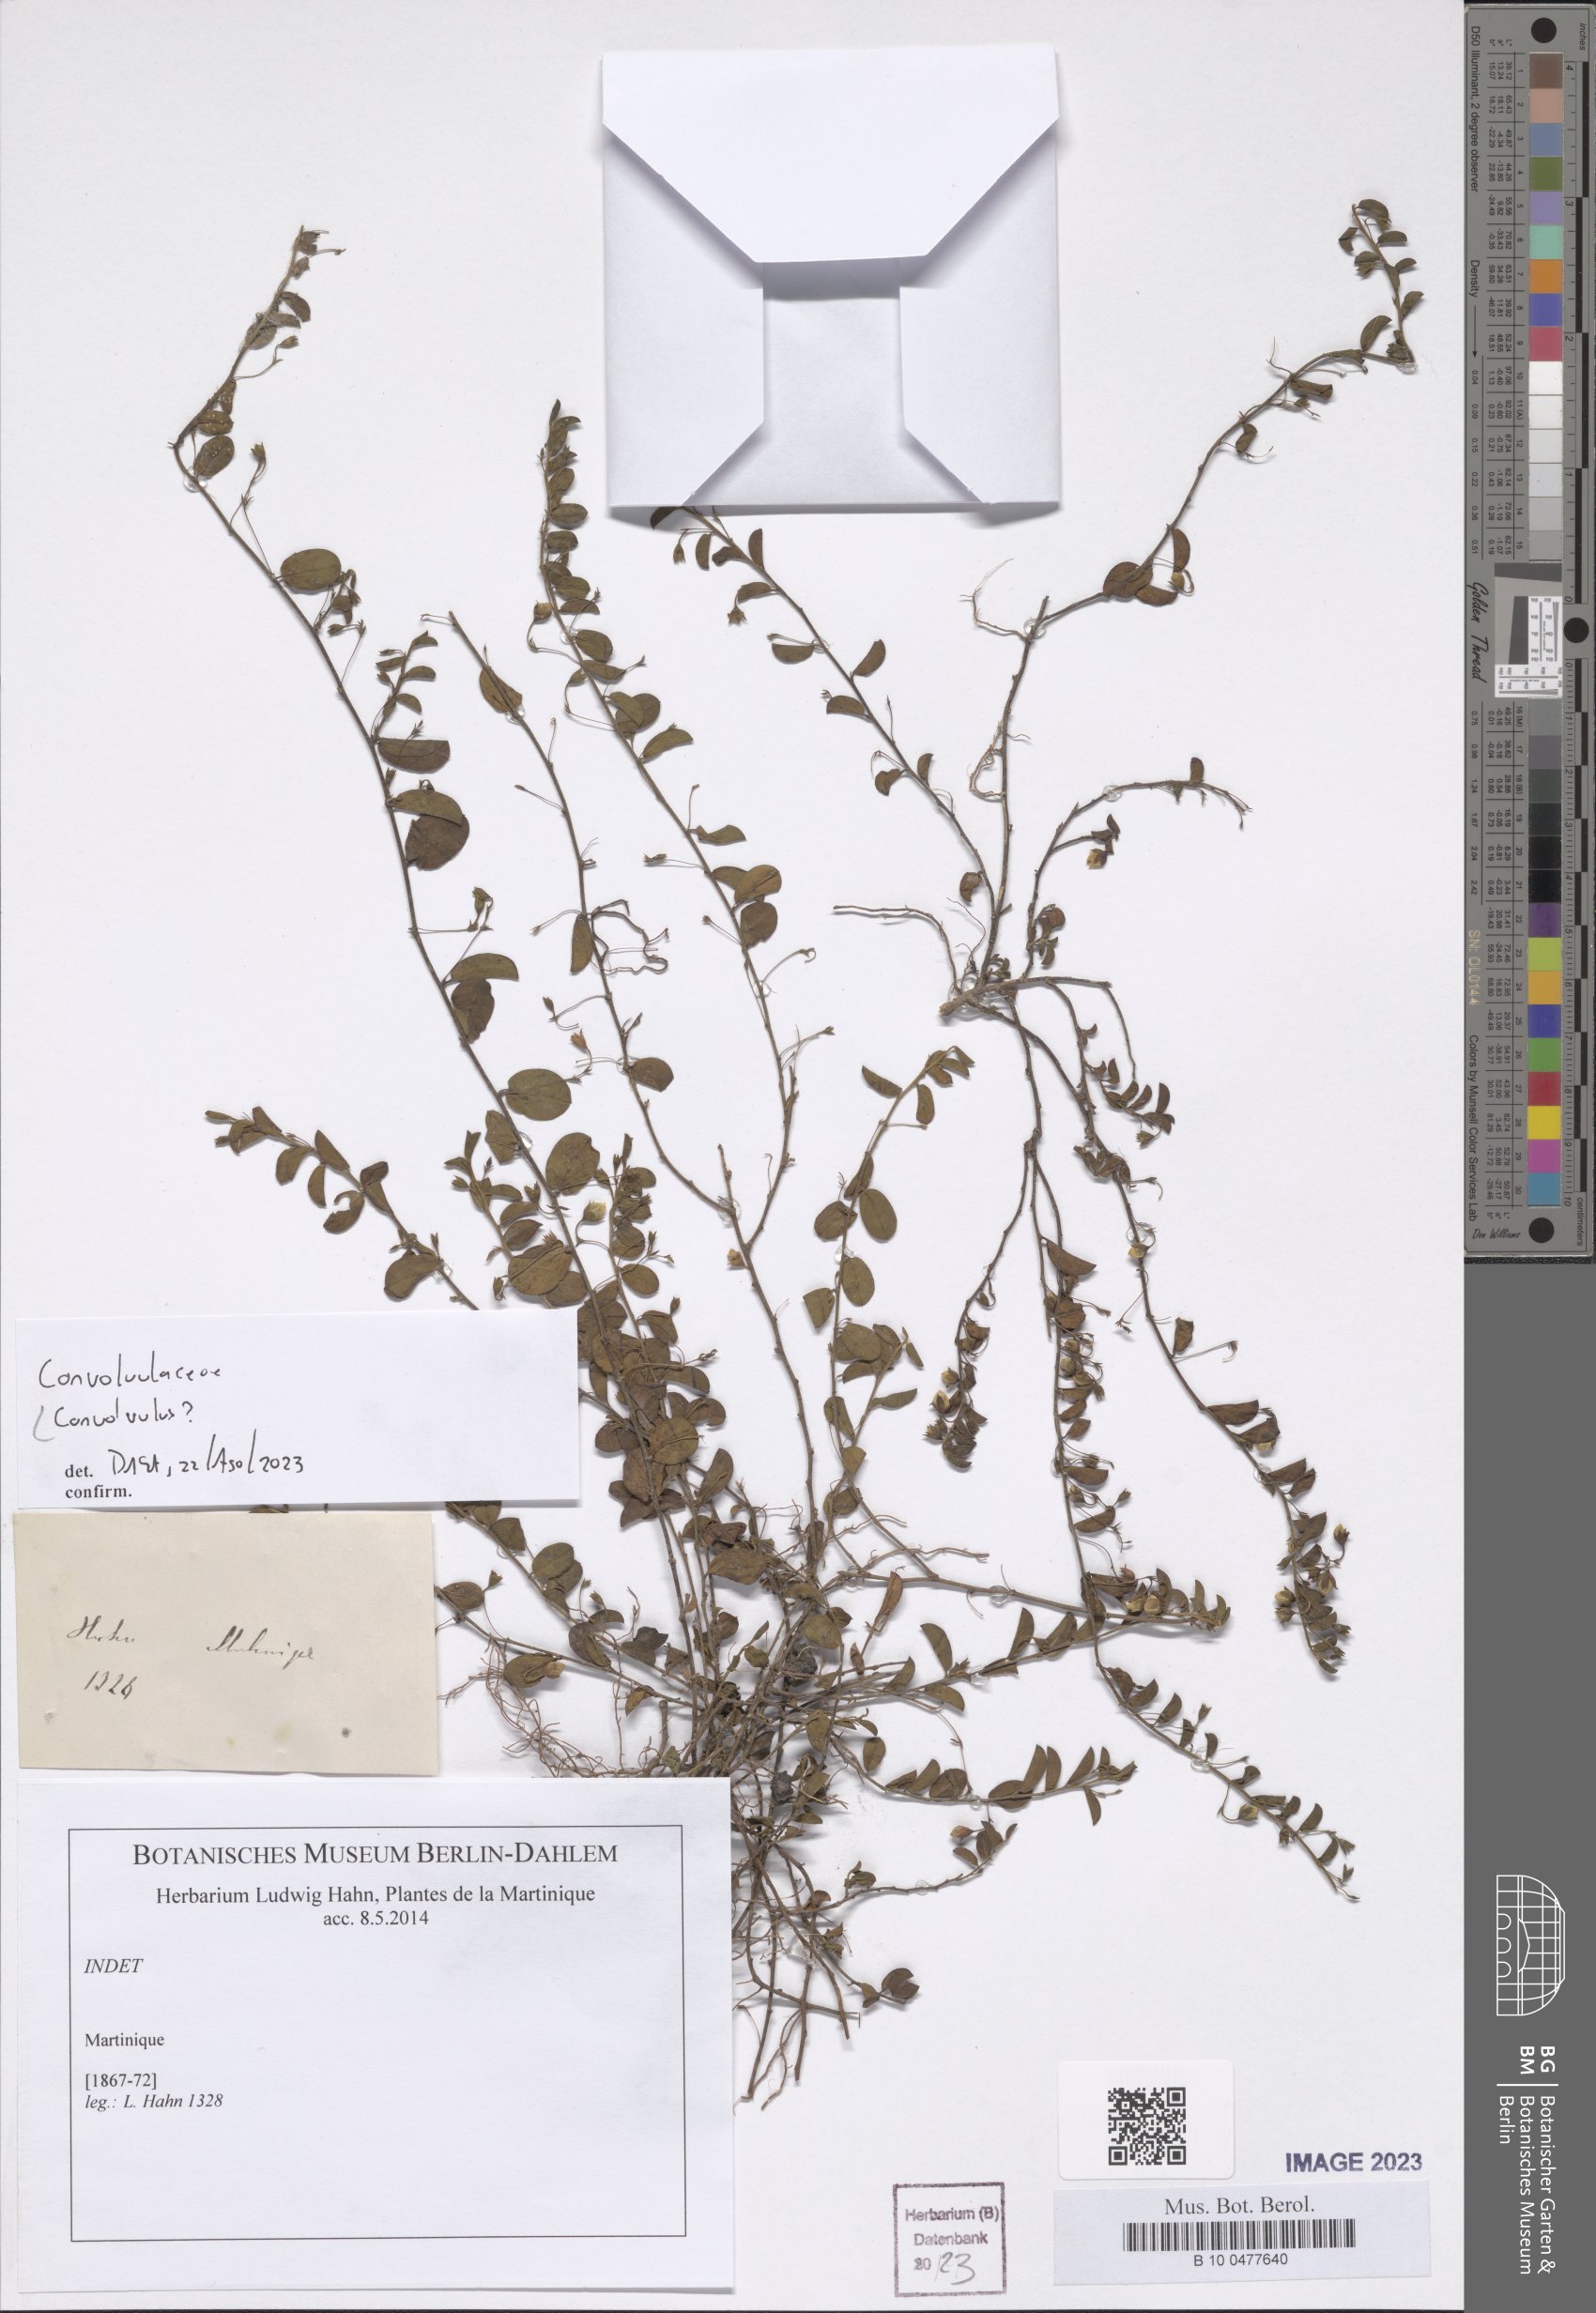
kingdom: Plantae
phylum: Tracheophyta
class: Magnoliopsida
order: Solanales
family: Convolvulaceae
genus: Convolvulus
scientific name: Convolvulus
